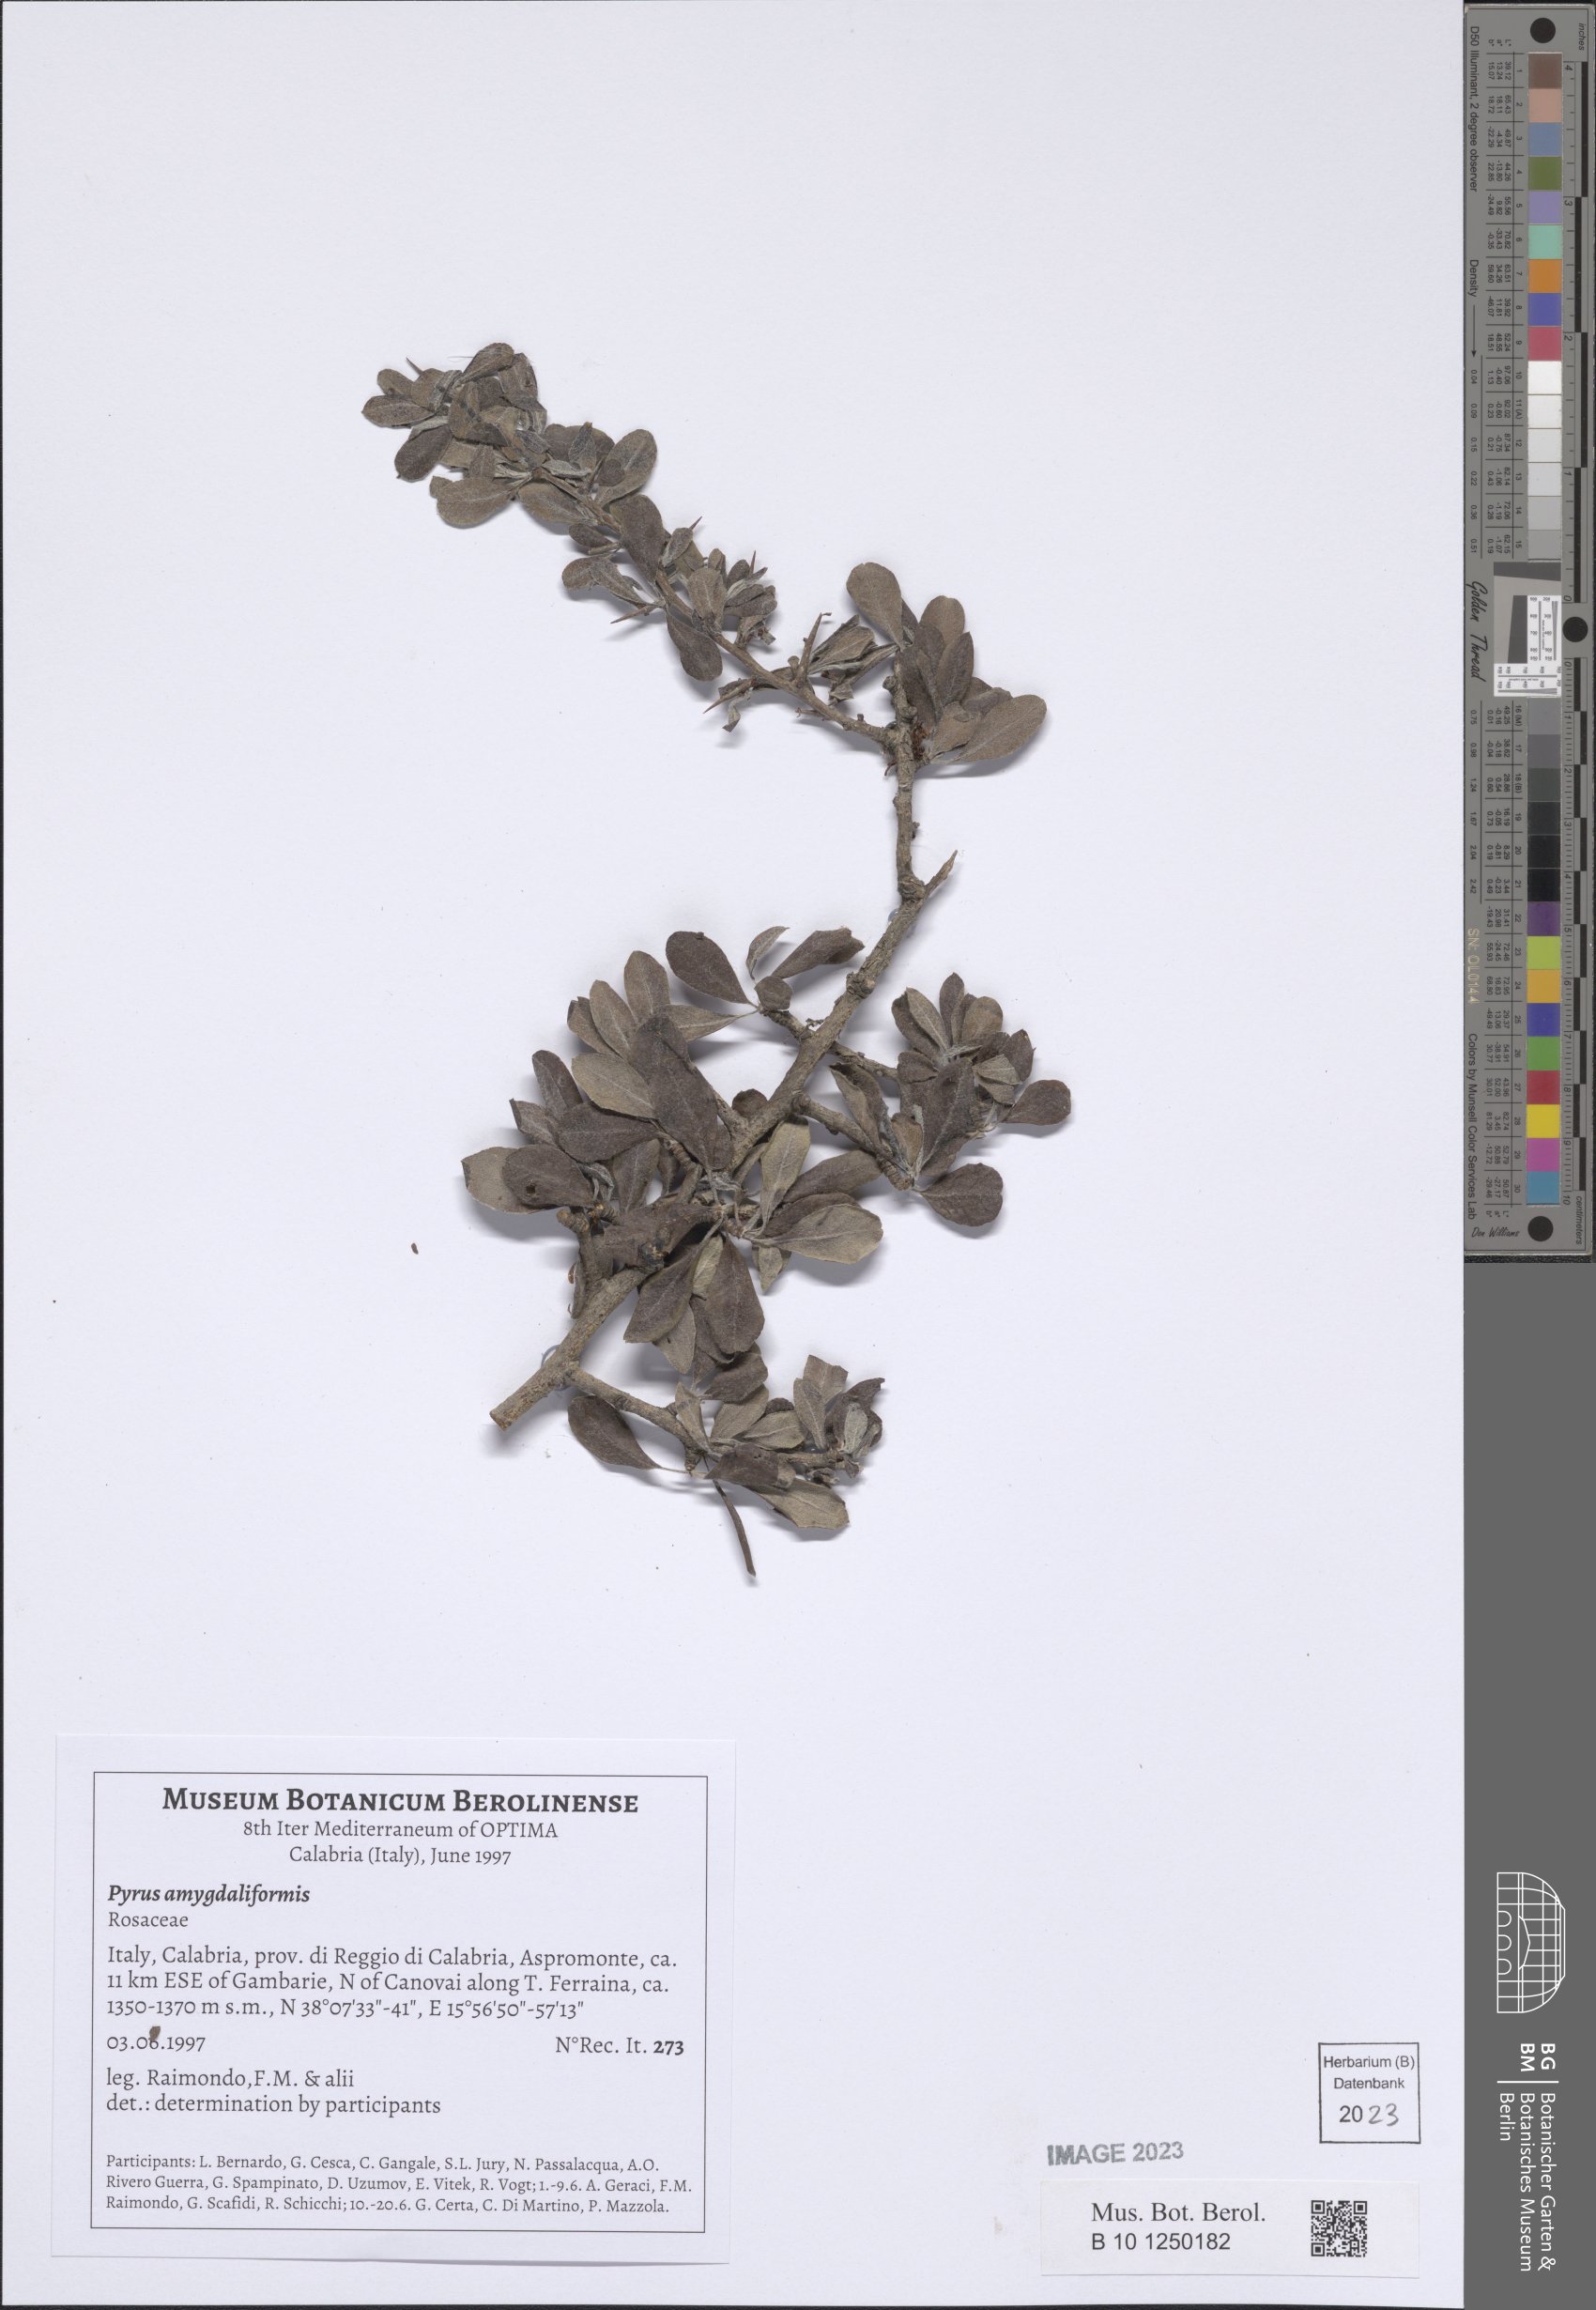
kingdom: Plantae
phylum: Tracheophyta
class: Magnoliopsida
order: Rosales
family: Rosaceae
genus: Pyrus
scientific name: Pyrus spinosa
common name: Almond-leaf pear
